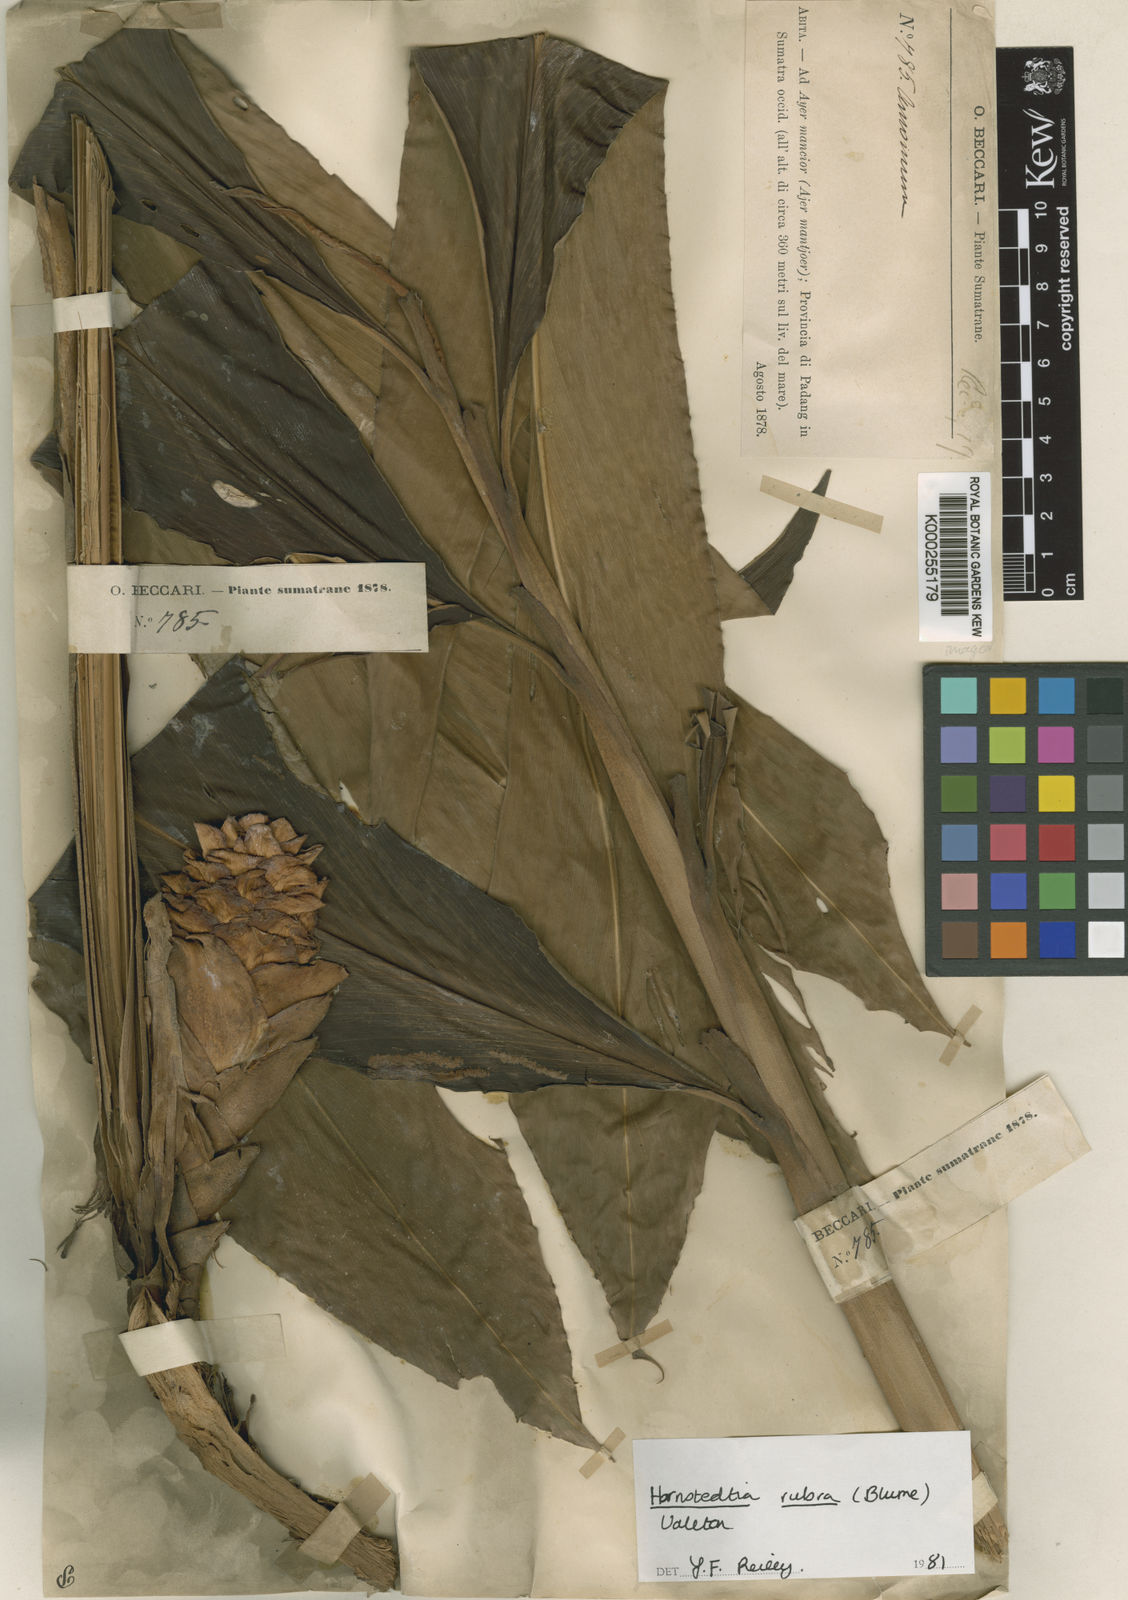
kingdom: Plantae
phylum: Tracheophyta
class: Liliopsida
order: Zingiberales
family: Zingiberaceae
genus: Hornstedtia
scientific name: Hornstedtia rubra
